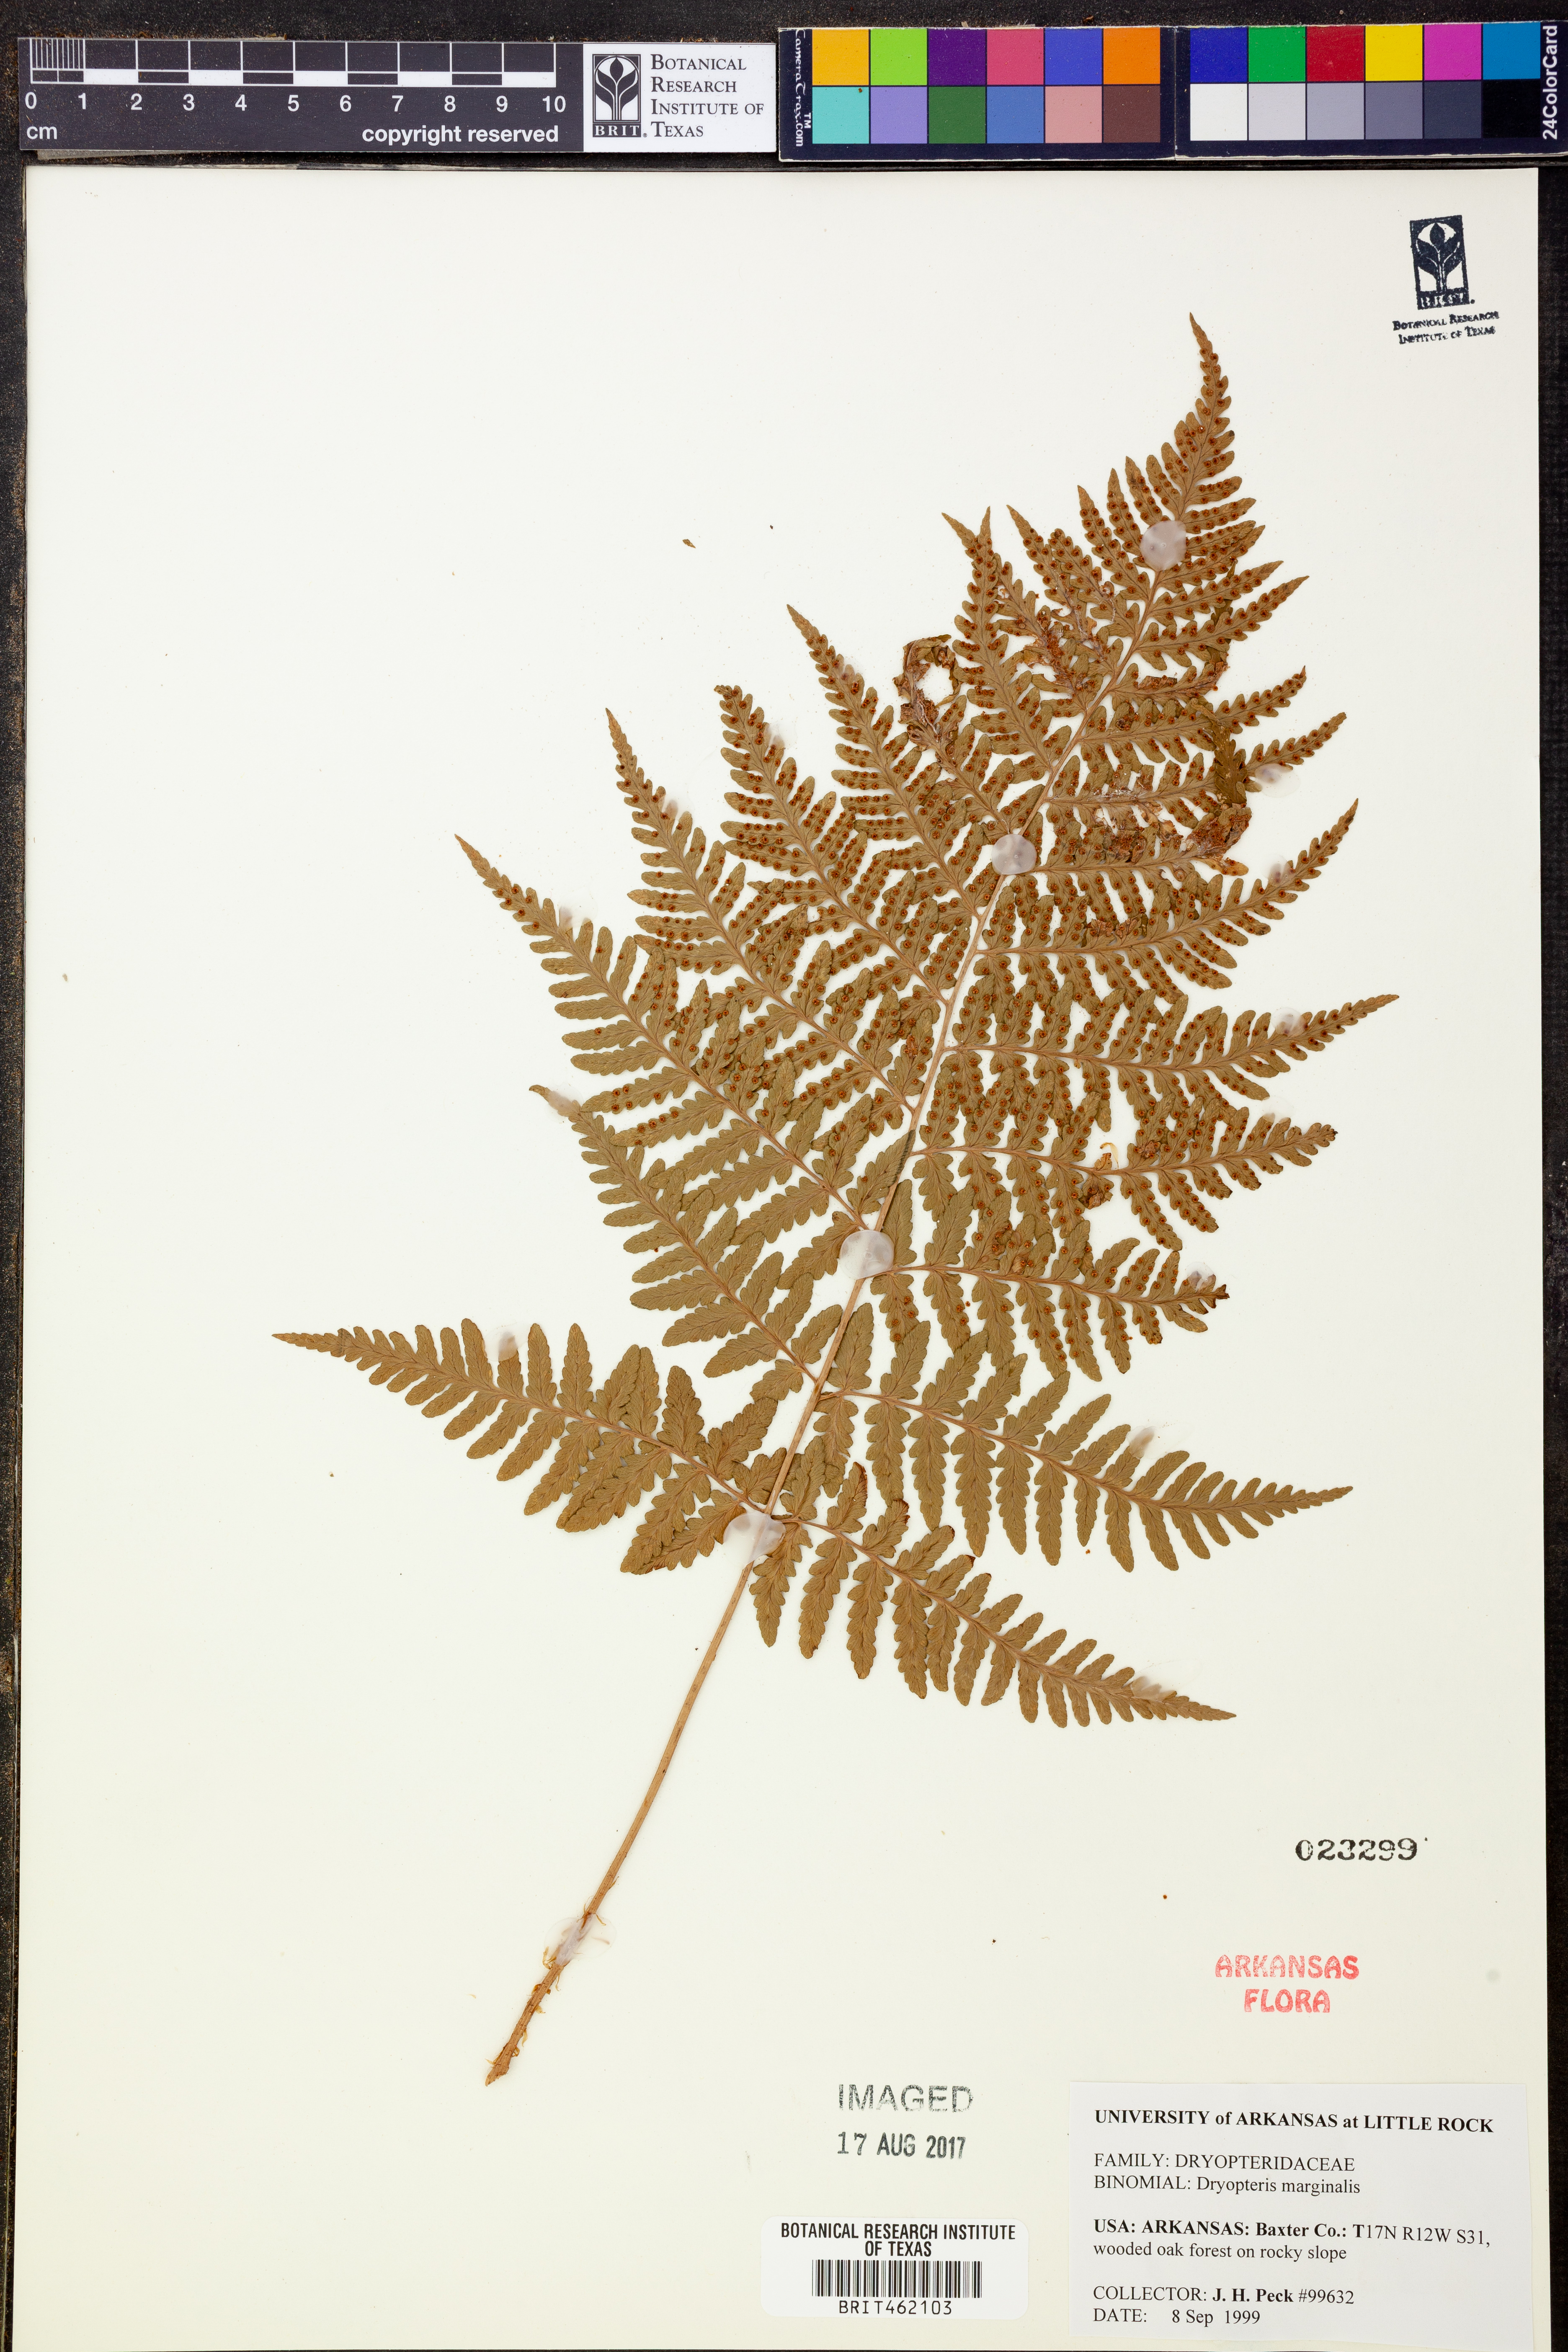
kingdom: Plantae
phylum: Tracheophyta
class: Polypodiopsida
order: Polypodiales
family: Dryopteridaceae
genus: Dryopteris
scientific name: Dryopteris marginalis
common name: Marginal wood fern
